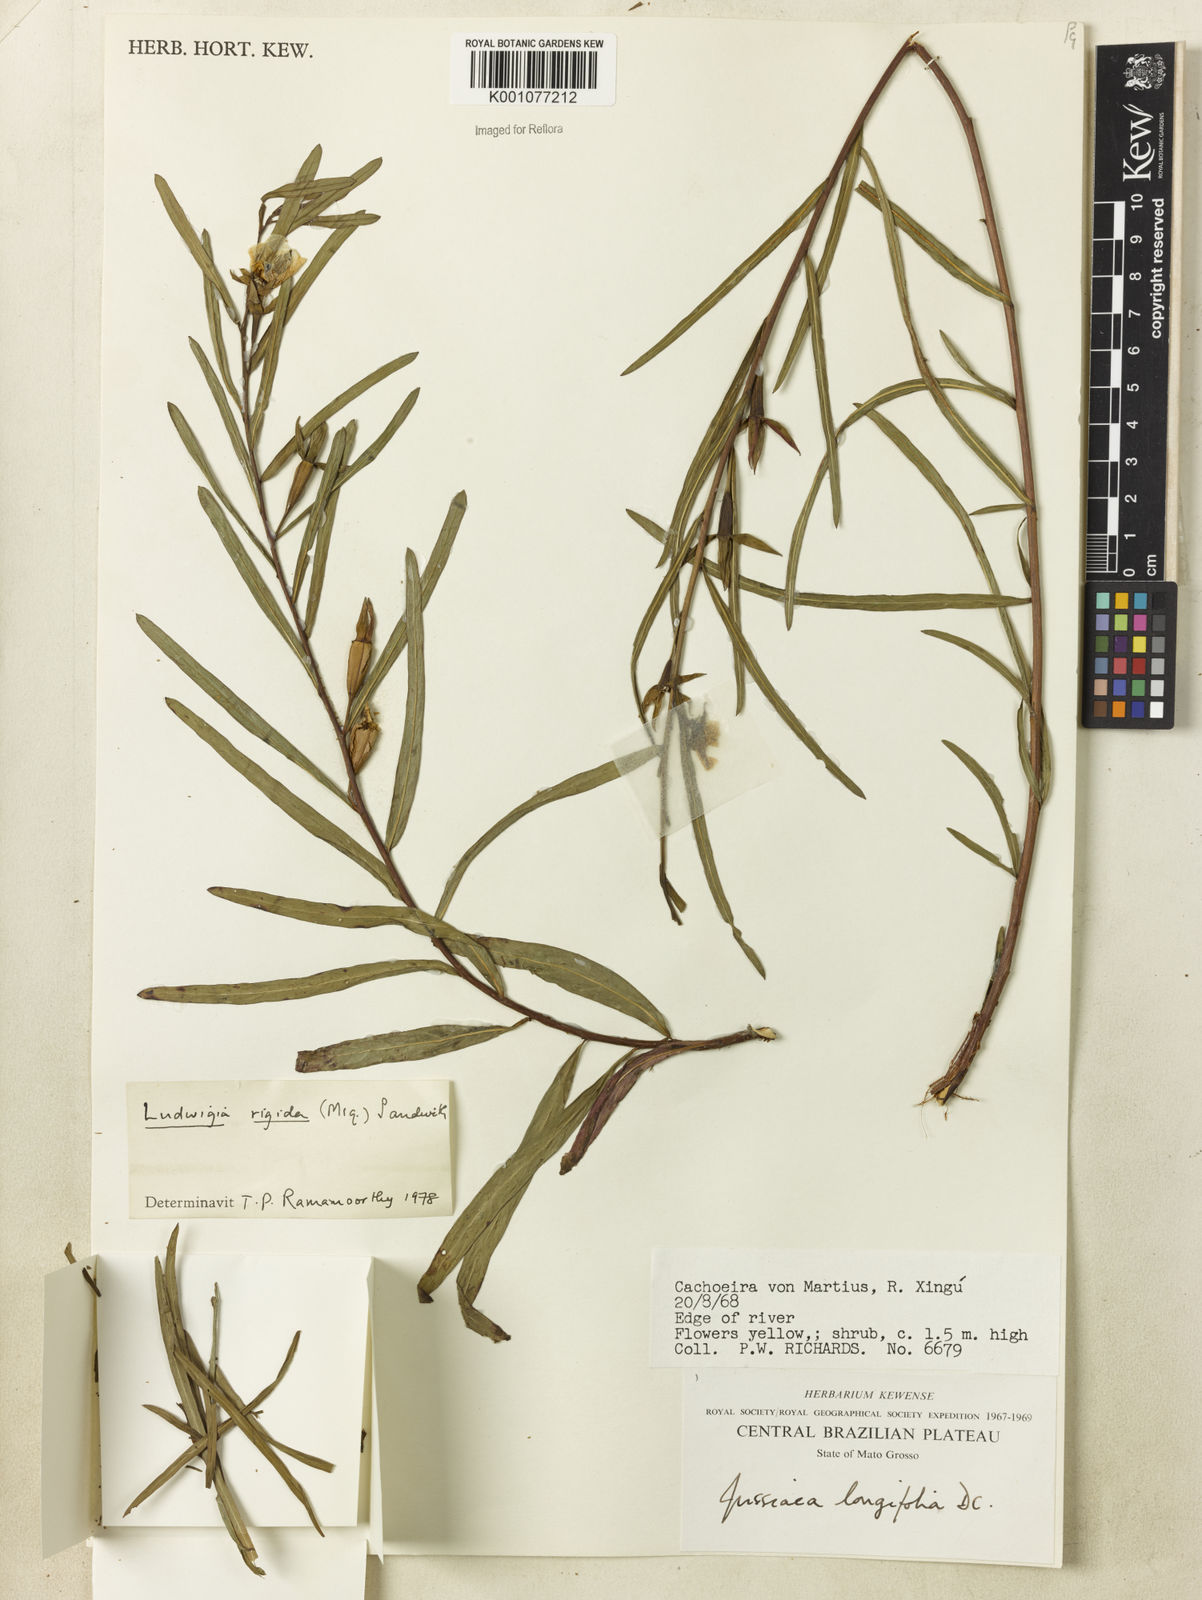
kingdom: Plantae
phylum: Tracheophyta
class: Magnoliopsida
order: Myrtales
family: Onagraceae
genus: Ludwigia
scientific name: Ludwigia rigida
